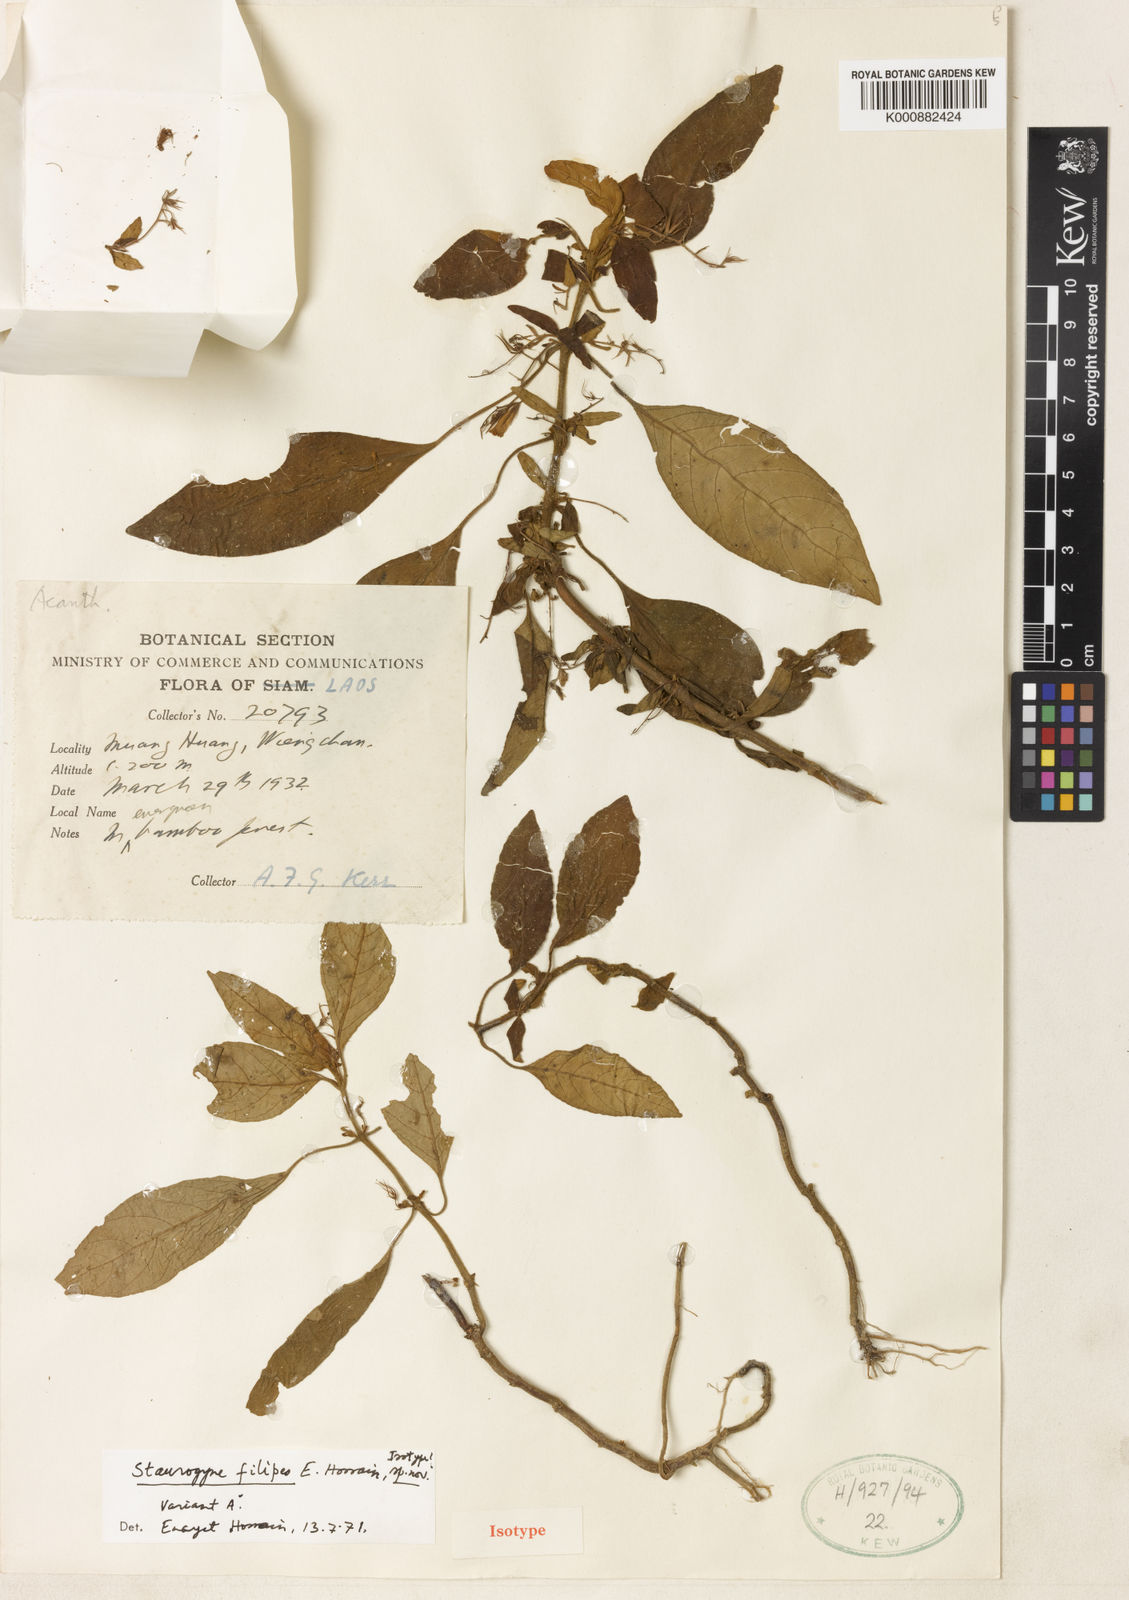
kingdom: Plantae
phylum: Tracheophyta
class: Magnoliopsida
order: Lamiales
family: Acanthaceae
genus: Staurogyne
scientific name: Staurogyne filipes
